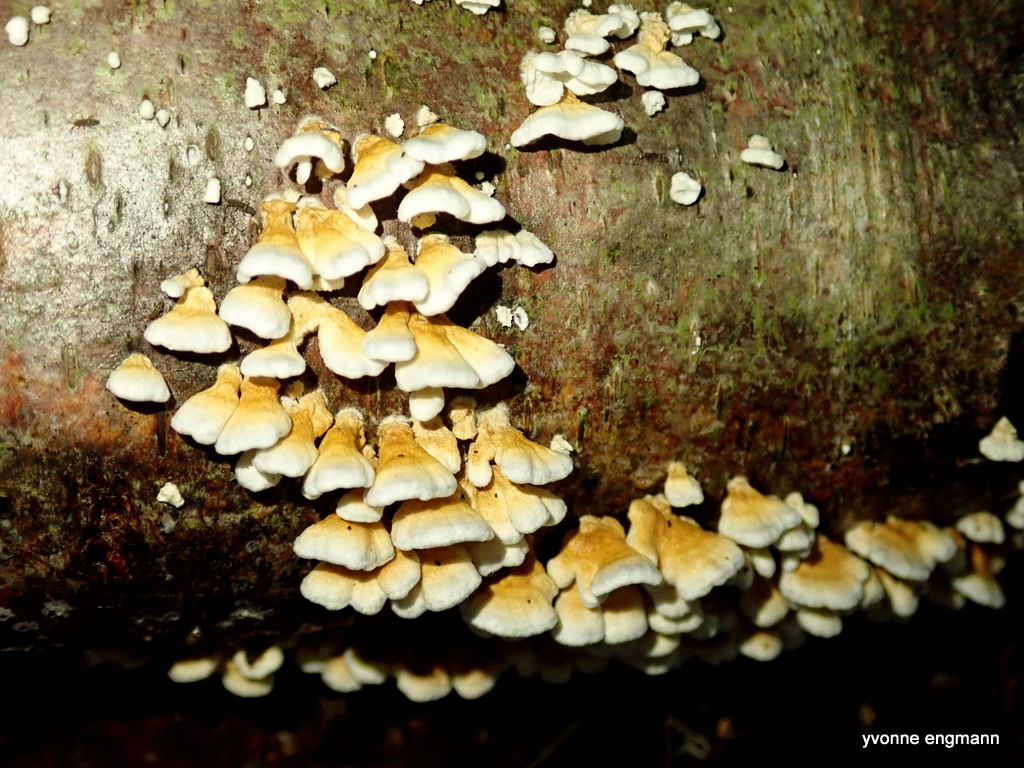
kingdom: Fungi
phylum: Basidiomycota
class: Agaricomycetes
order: Amylocorticiales
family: Amylocorticiaceae
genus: Plicaturopsis
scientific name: Plicaturopsis crispa
